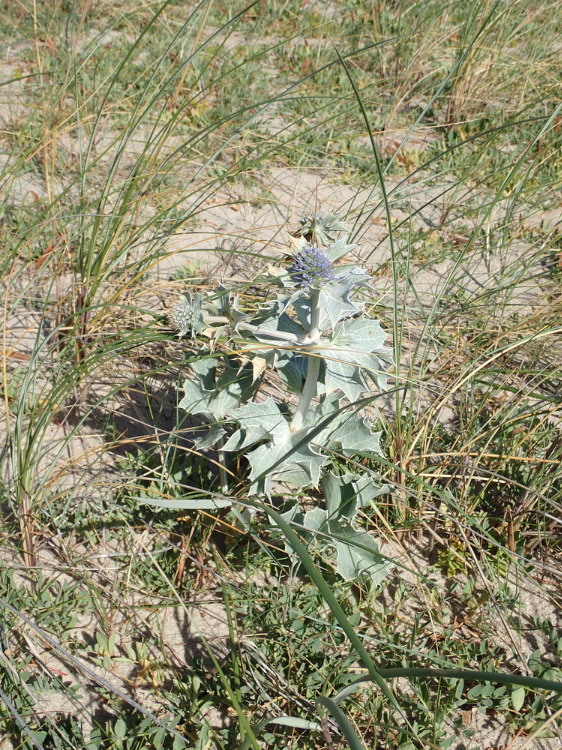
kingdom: Plantae
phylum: Tracheophyta
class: Magnoliopsida
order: Apiales
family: Apiaceae
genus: Eryngium
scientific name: Eryngium maritimum
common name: Strand-mandstro
